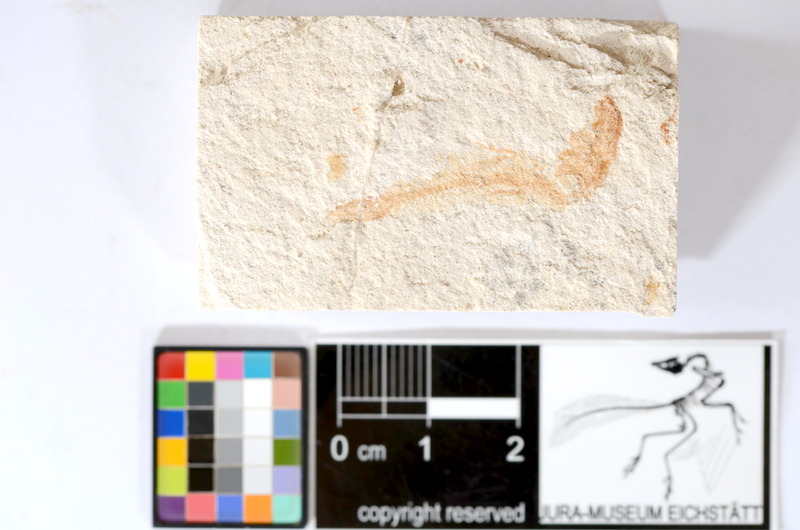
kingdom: Animalia
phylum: Chordata
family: Ascalaboidae
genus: Tharsis
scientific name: Tharsis dubius
